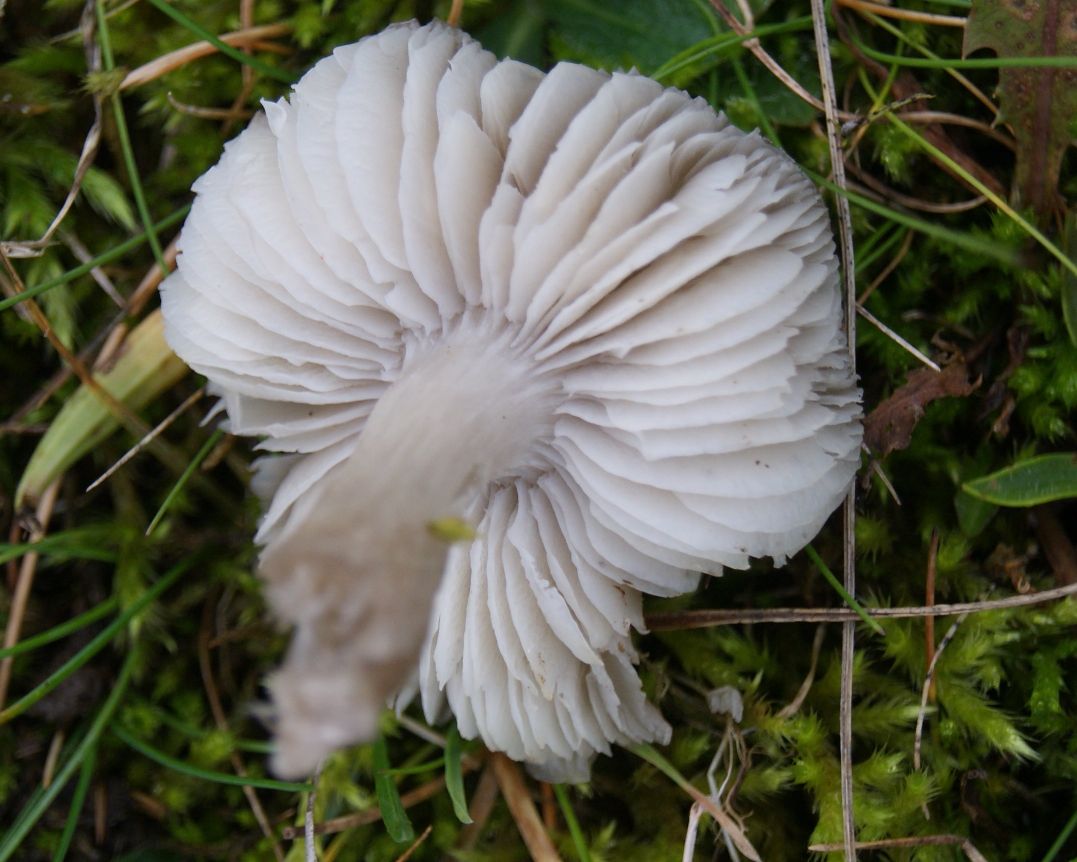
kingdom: Fungi
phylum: Basidiomycota
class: Agaricomycetes
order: Agaricales
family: Tricholomataceae
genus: Dermoloma
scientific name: Dermoloma cuneifolium
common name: eng-nonnehat
